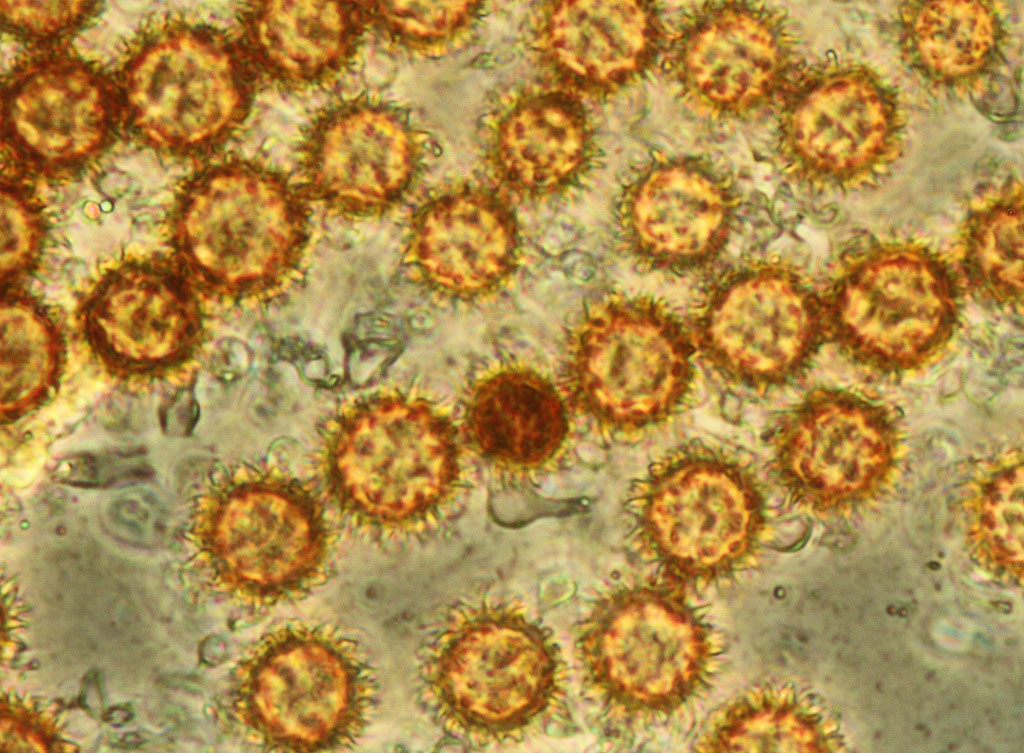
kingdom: Fungi
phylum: Basidiomycota
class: Agaricomycetes
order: Boletales
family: Sclerodermataceae
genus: Scleroderma
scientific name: Scleroderma areolatum
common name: plettet bruskbold
